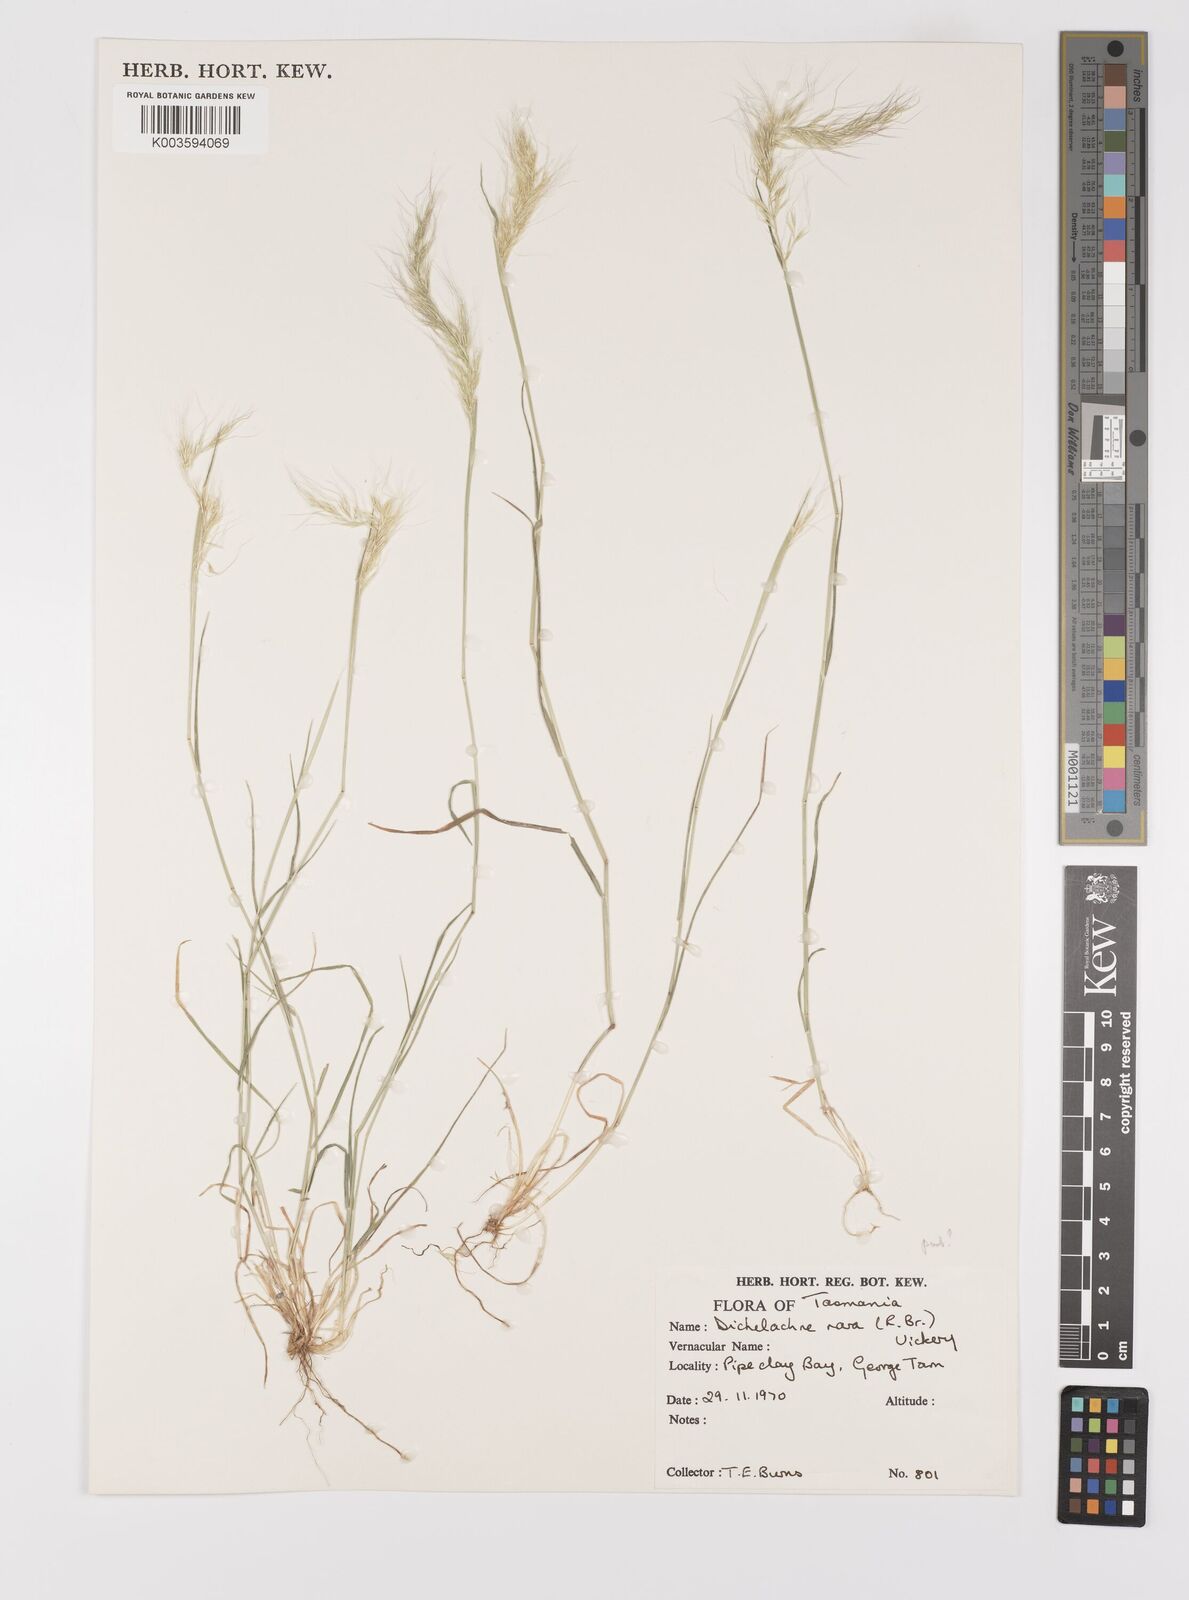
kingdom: Plantae
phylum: Tracheophyta
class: Liliopsida
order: Poales
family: Poaceae
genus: Dichelachne
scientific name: Dichelachne rara
